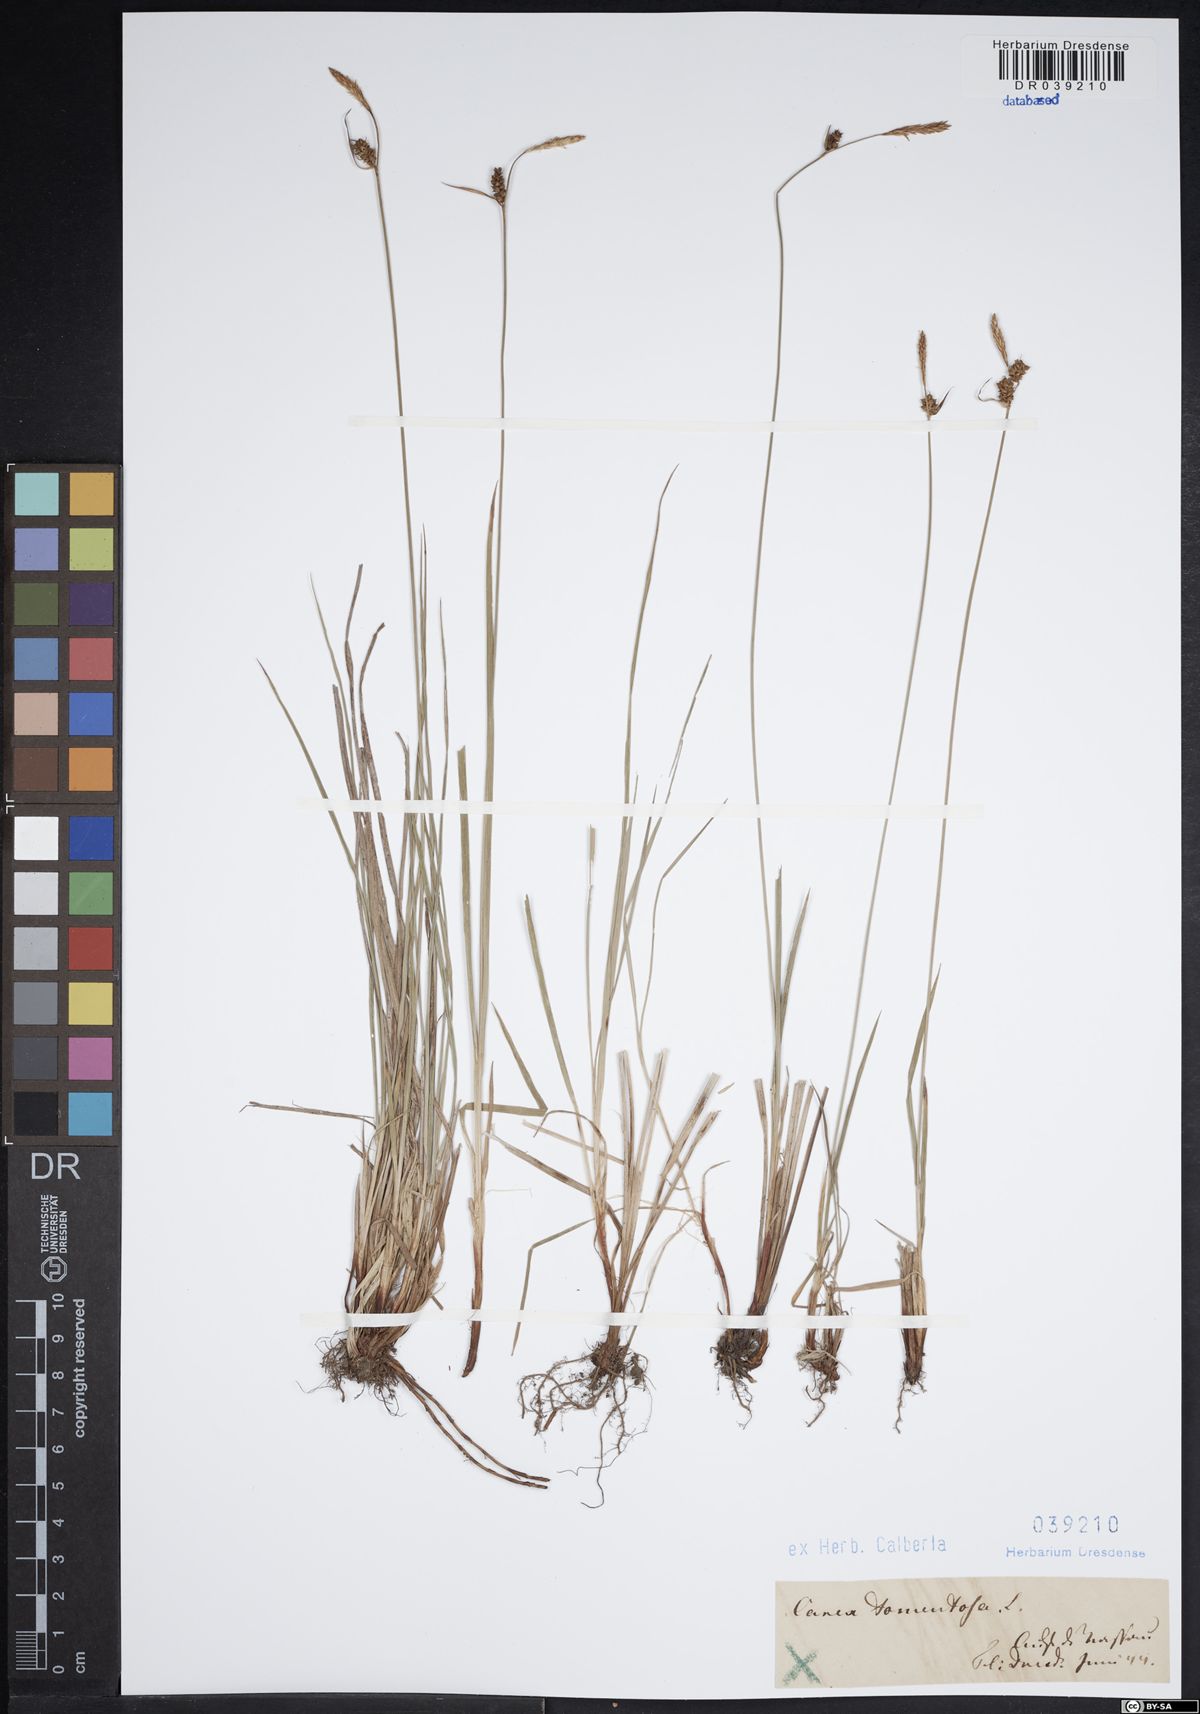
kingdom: Plantae
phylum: Tracheophyta
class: Liliopsida
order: Poales
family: Cyperaceae
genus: Carex
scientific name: Carex tomentosa
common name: Downy-fruited sedge
